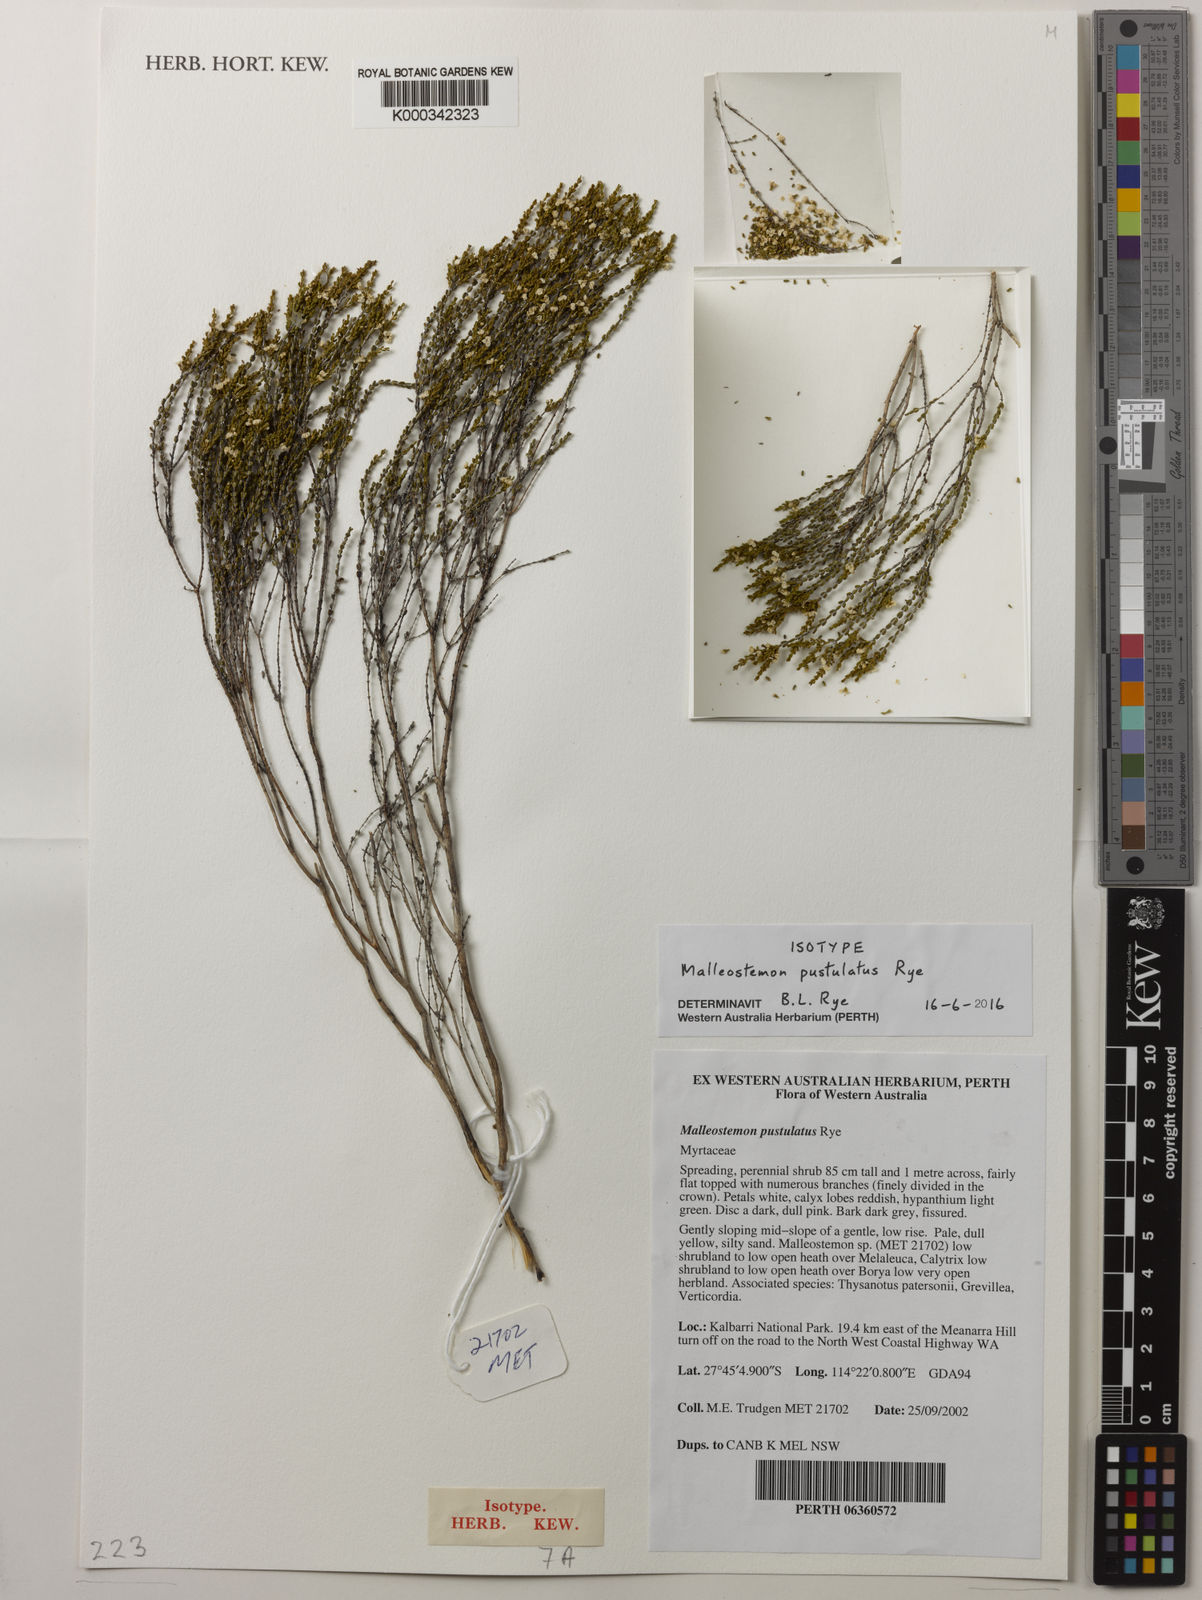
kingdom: Plantae
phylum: Tracheophyta
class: Magnoliopsida
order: Myrtales
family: Myrtaceae
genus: Malleostemon
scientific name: Malleostemon pustulatus
